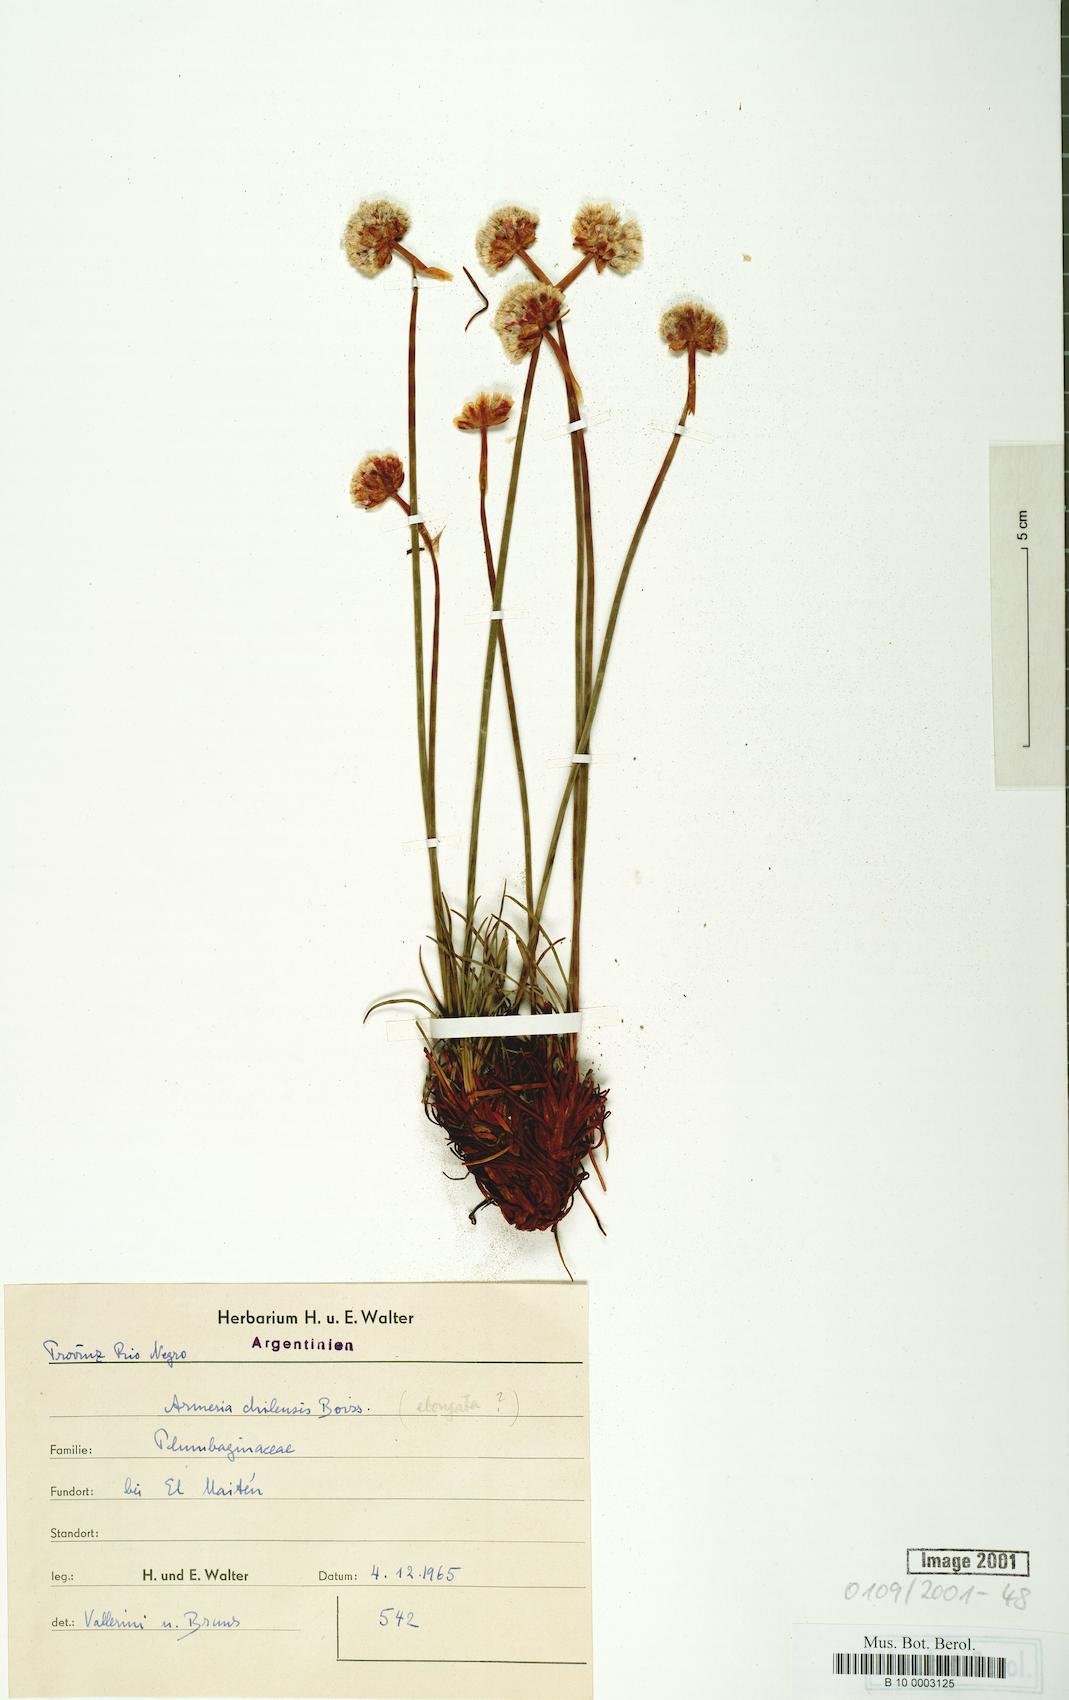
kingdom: Plantae
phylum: Tracheophyta
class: Magnoliopsida
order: Caryophyllales
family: Plumbaginaceae
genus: Armeria
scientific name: Armeria curvifolia
